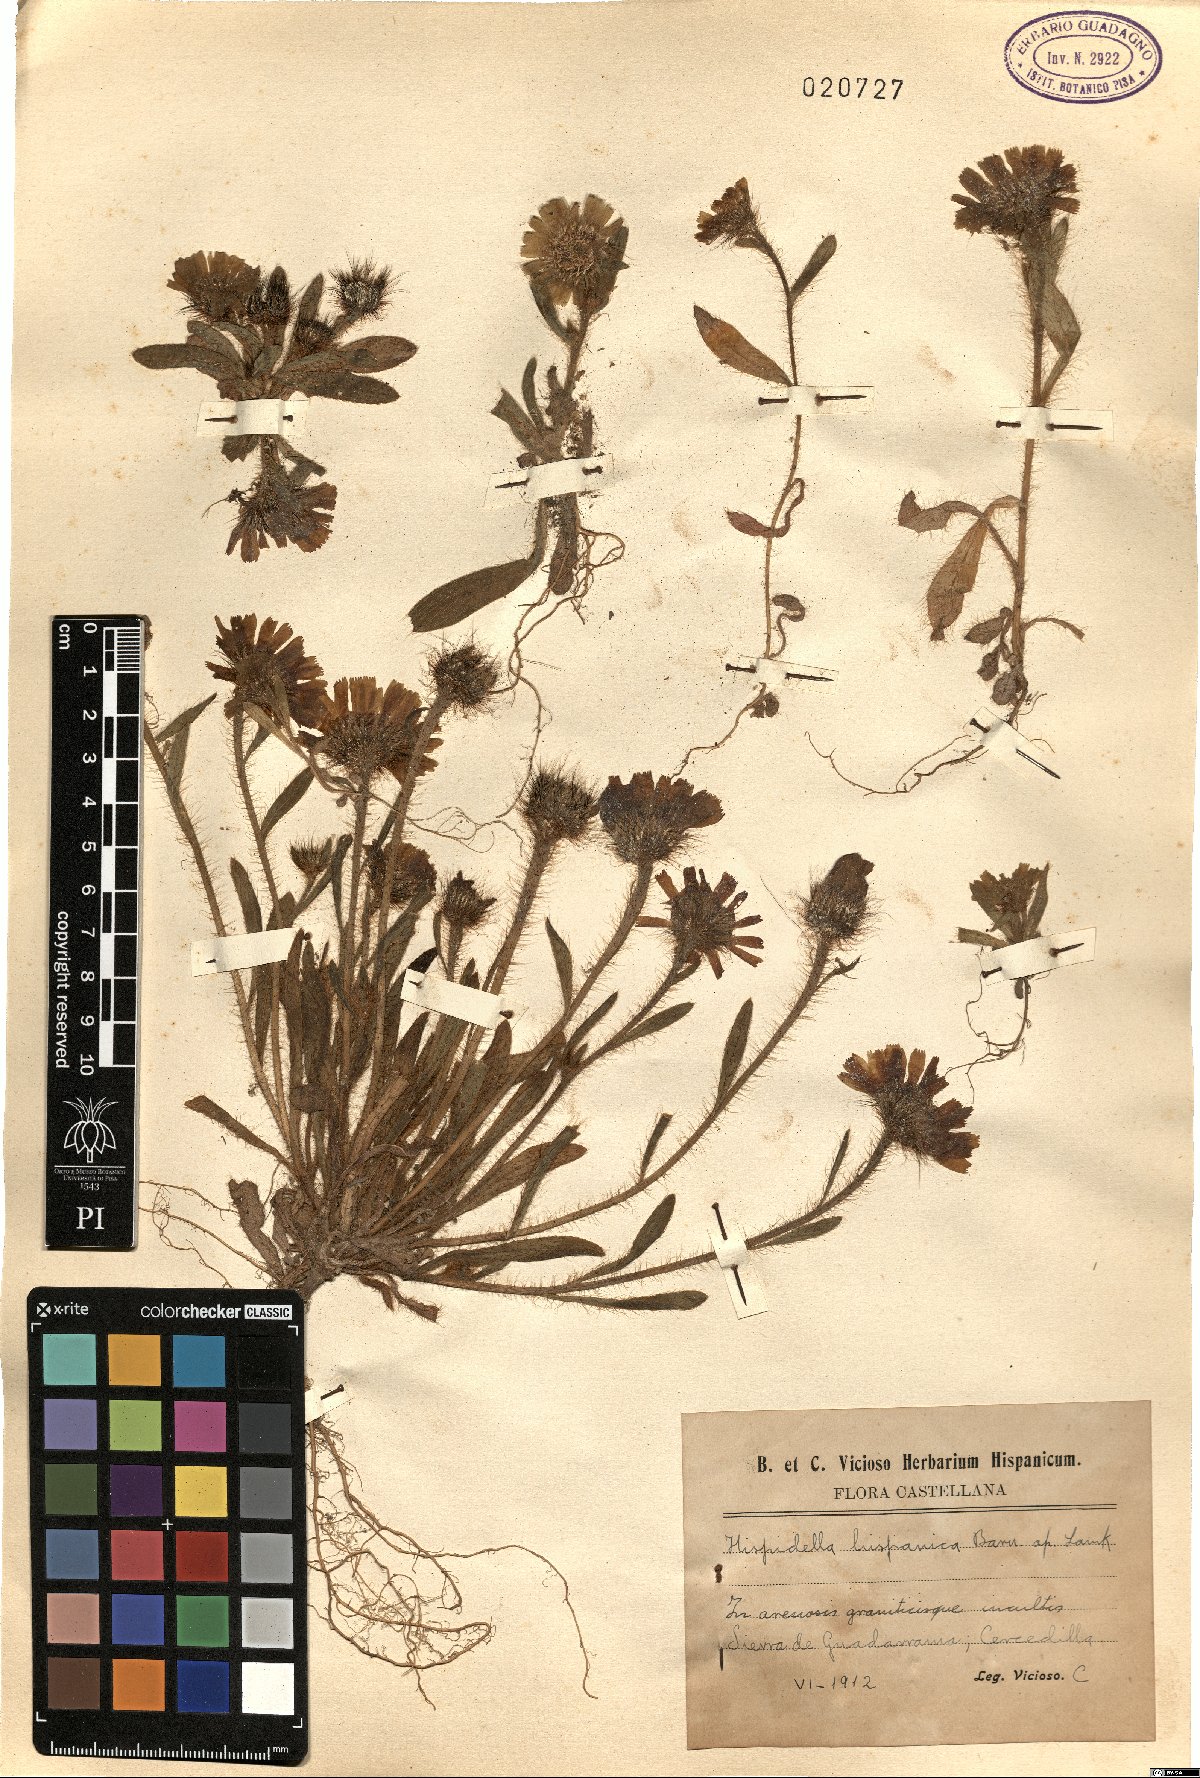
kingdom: Plantae
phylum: Tracheophyta
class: Magnoliopsida
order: Asterales
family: Asteraceae
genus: Hispidella
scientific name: Hispidella hispanica
